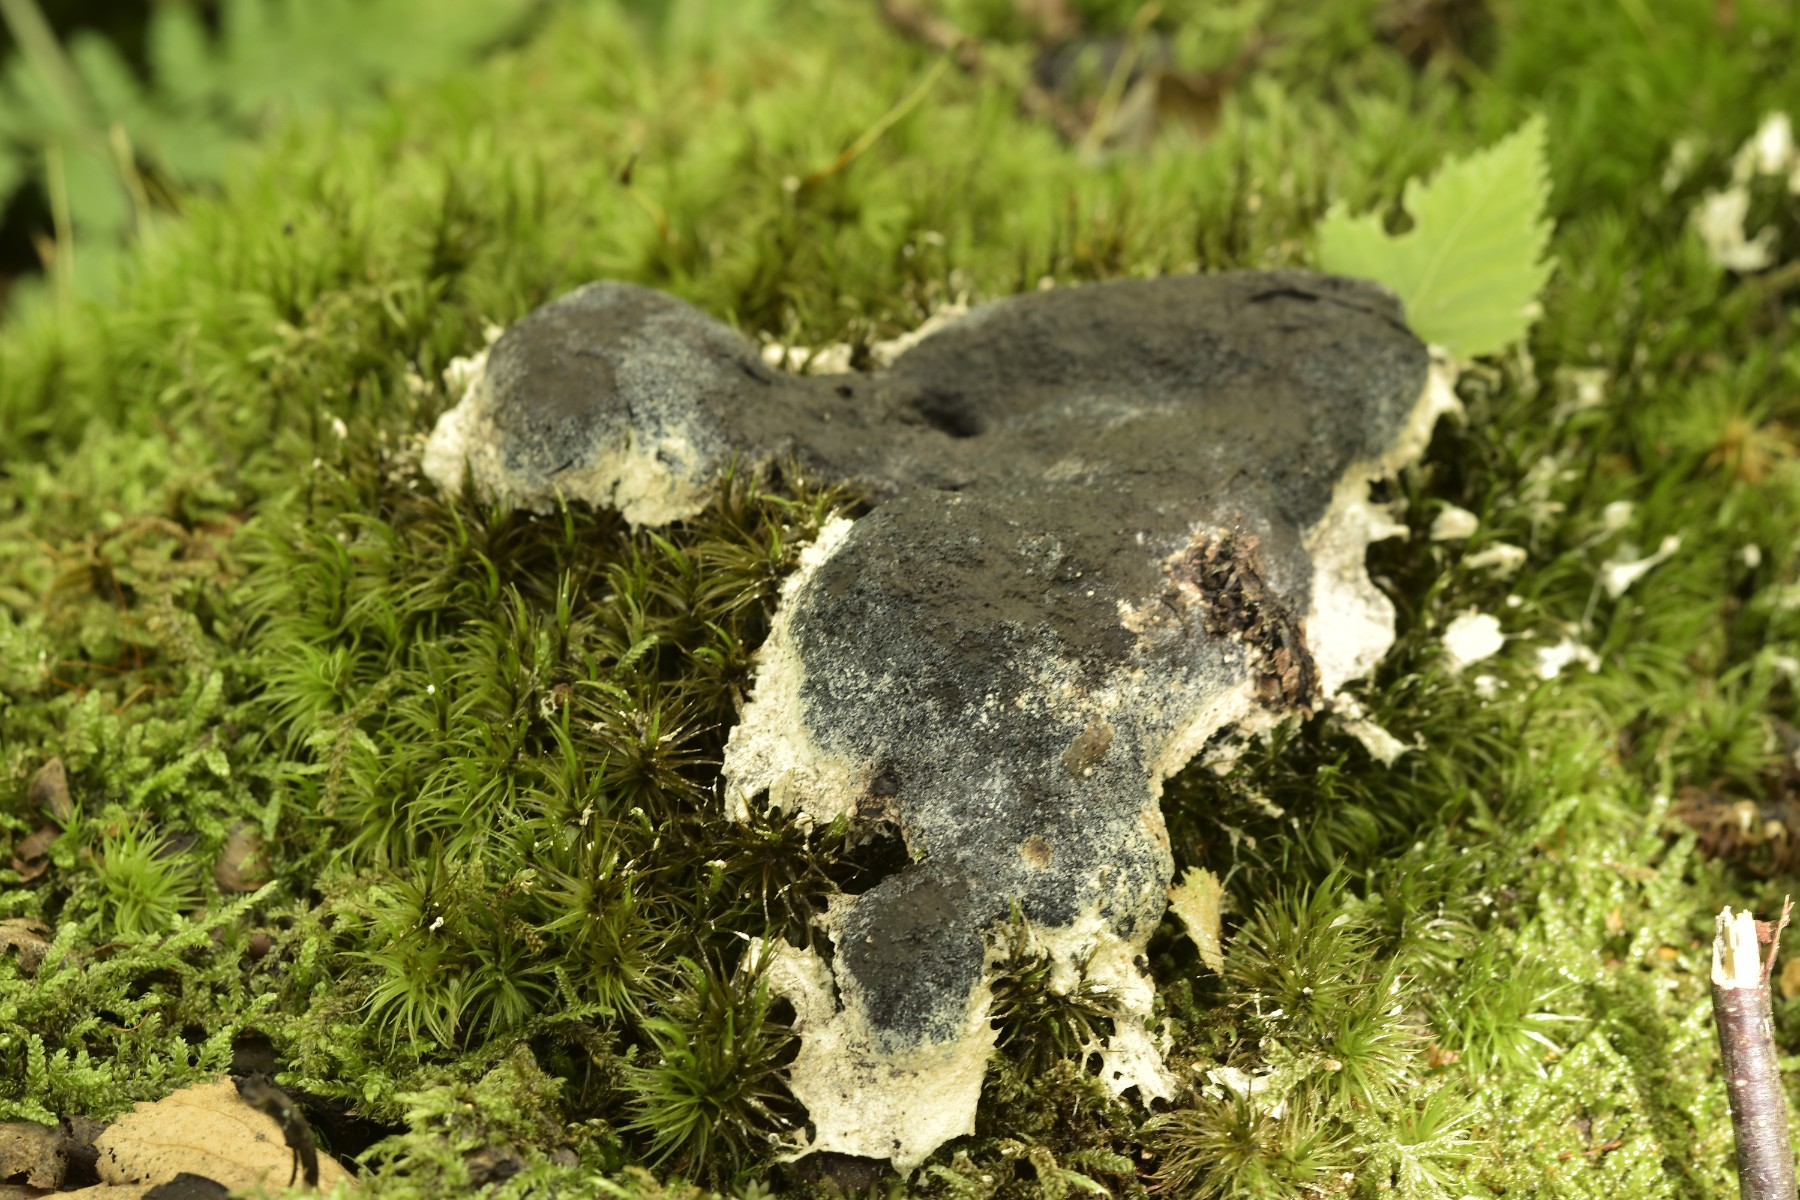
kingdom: Protozoa
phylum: Mycetozoa
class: Myxomycetes
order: Physarales
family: Physaraceae
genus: Fuligo
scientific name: Fuligo septica
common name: gul troldsmør
